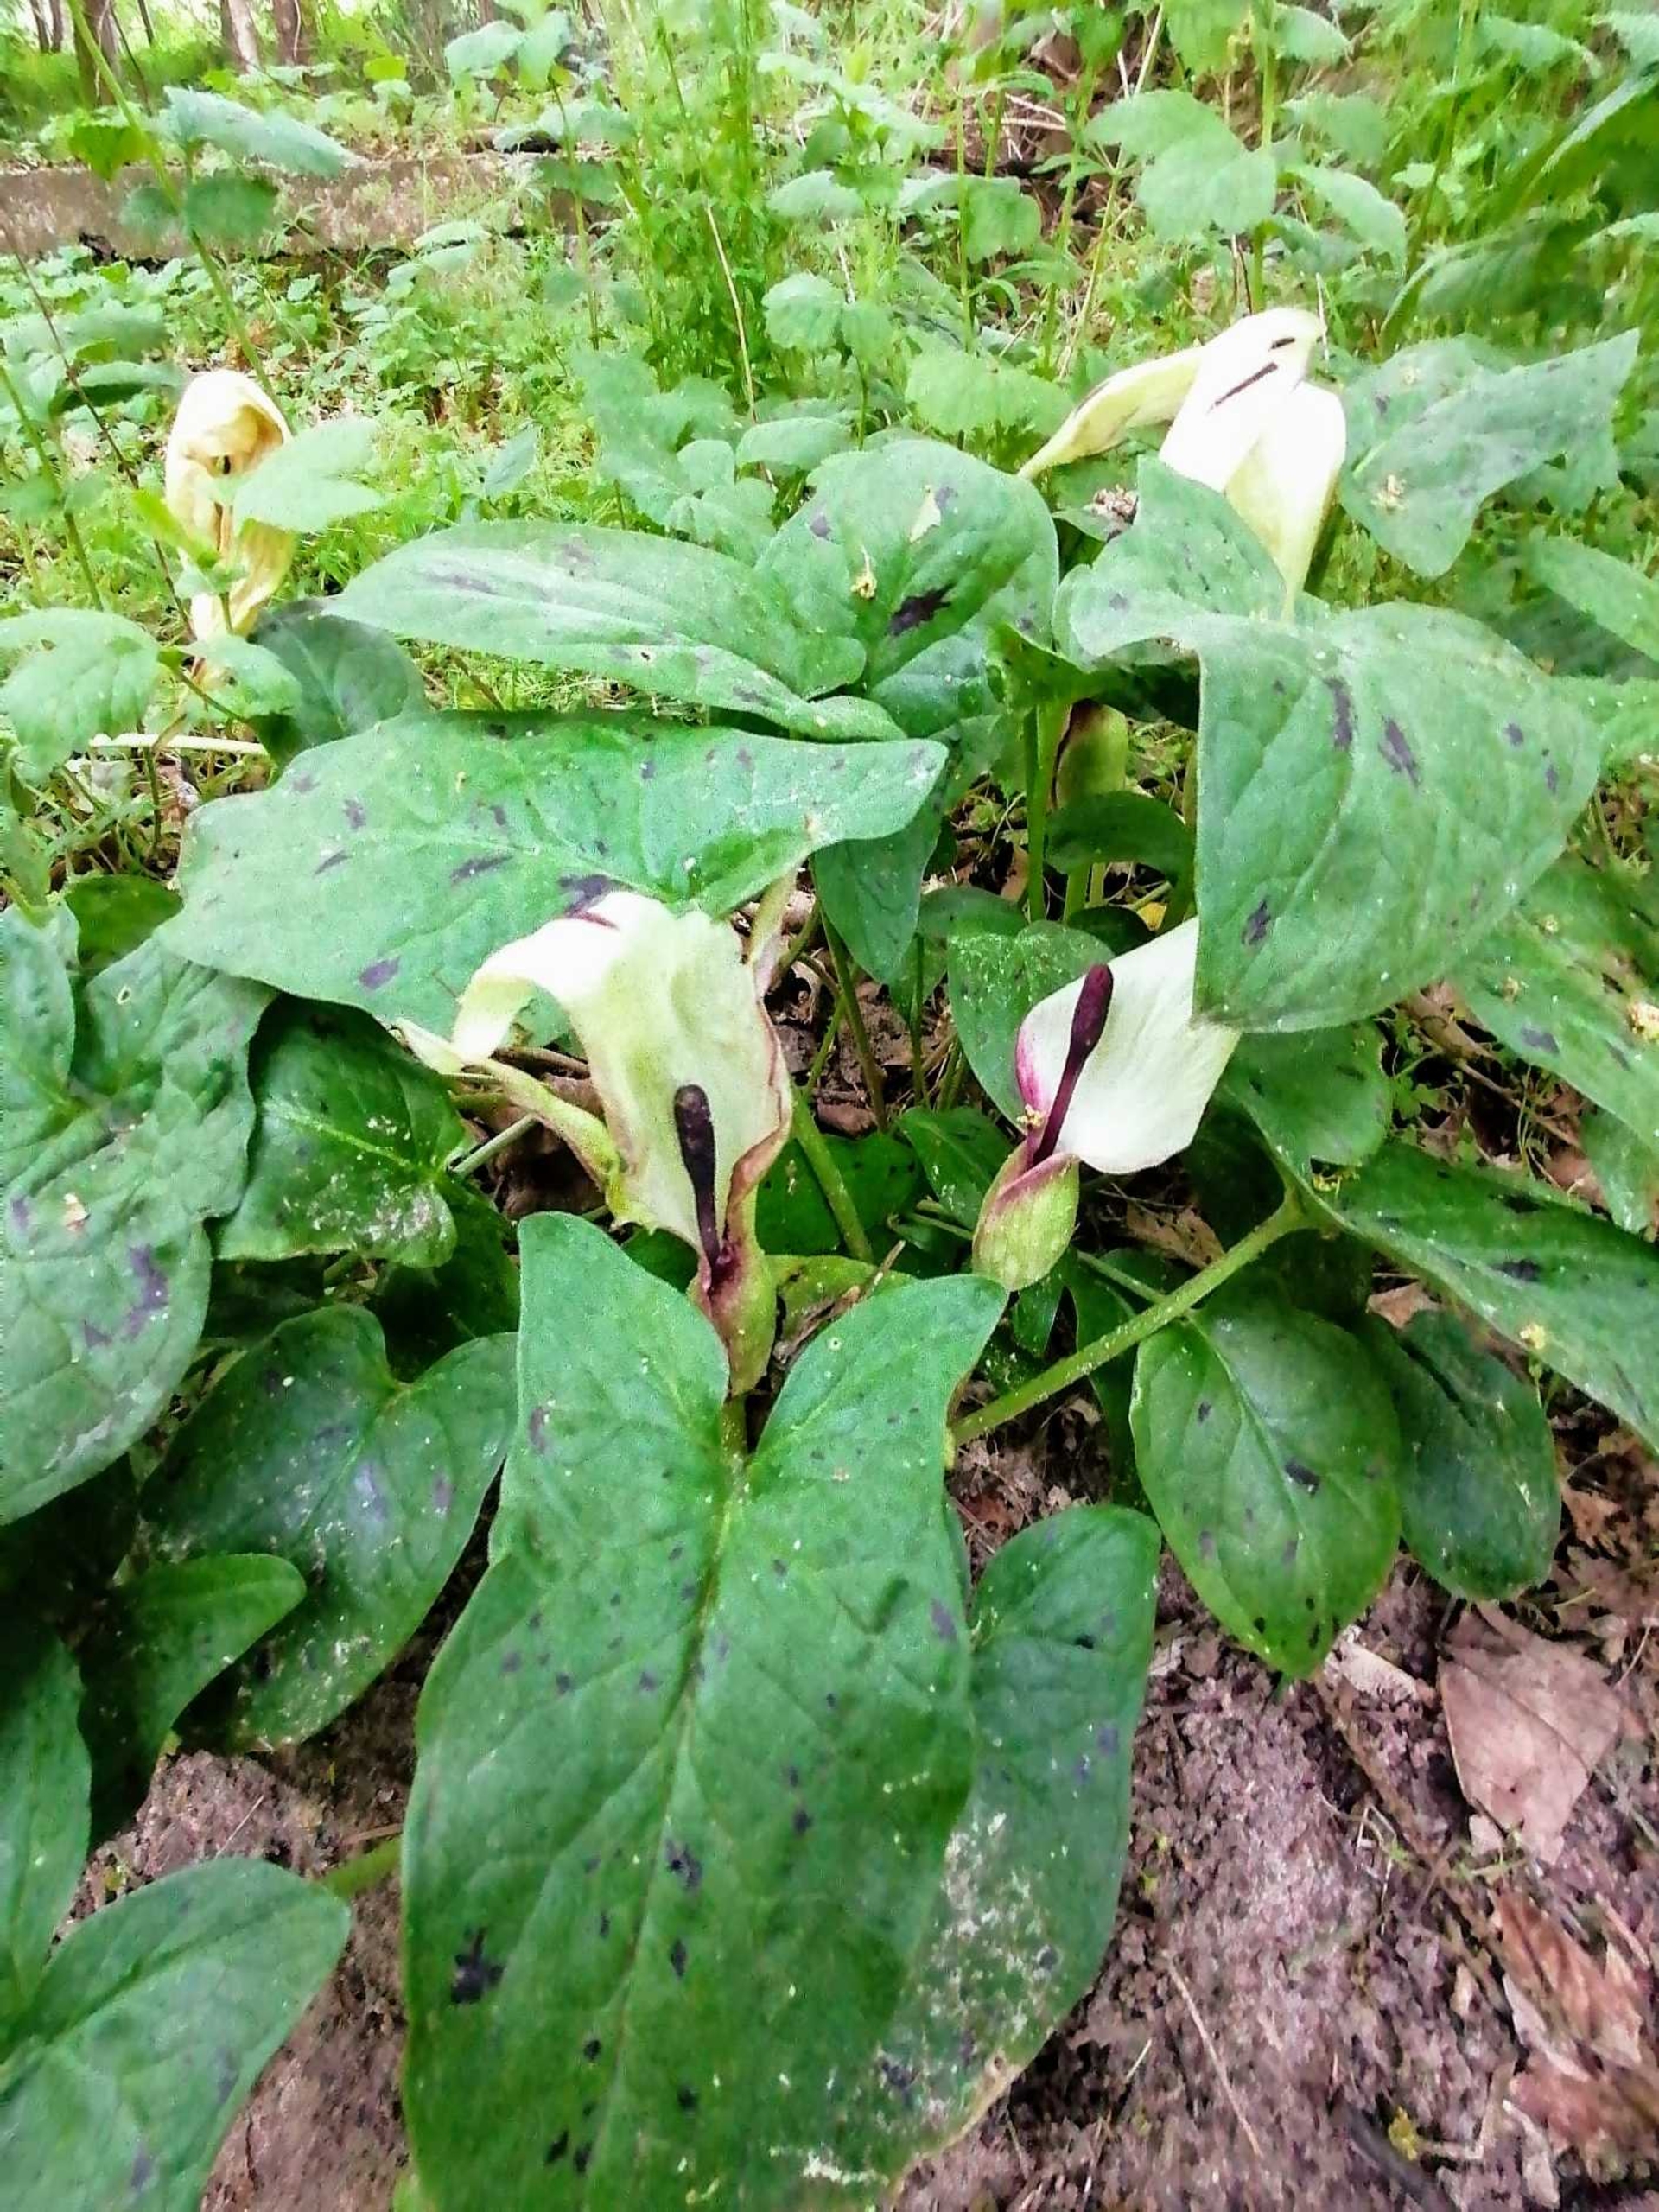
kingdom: Plantae
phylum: Tracheophyta
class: Liliopsida
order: Alismatales
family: Araceae
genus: Arum
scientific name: Arum maculatum
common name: Plettet arum
